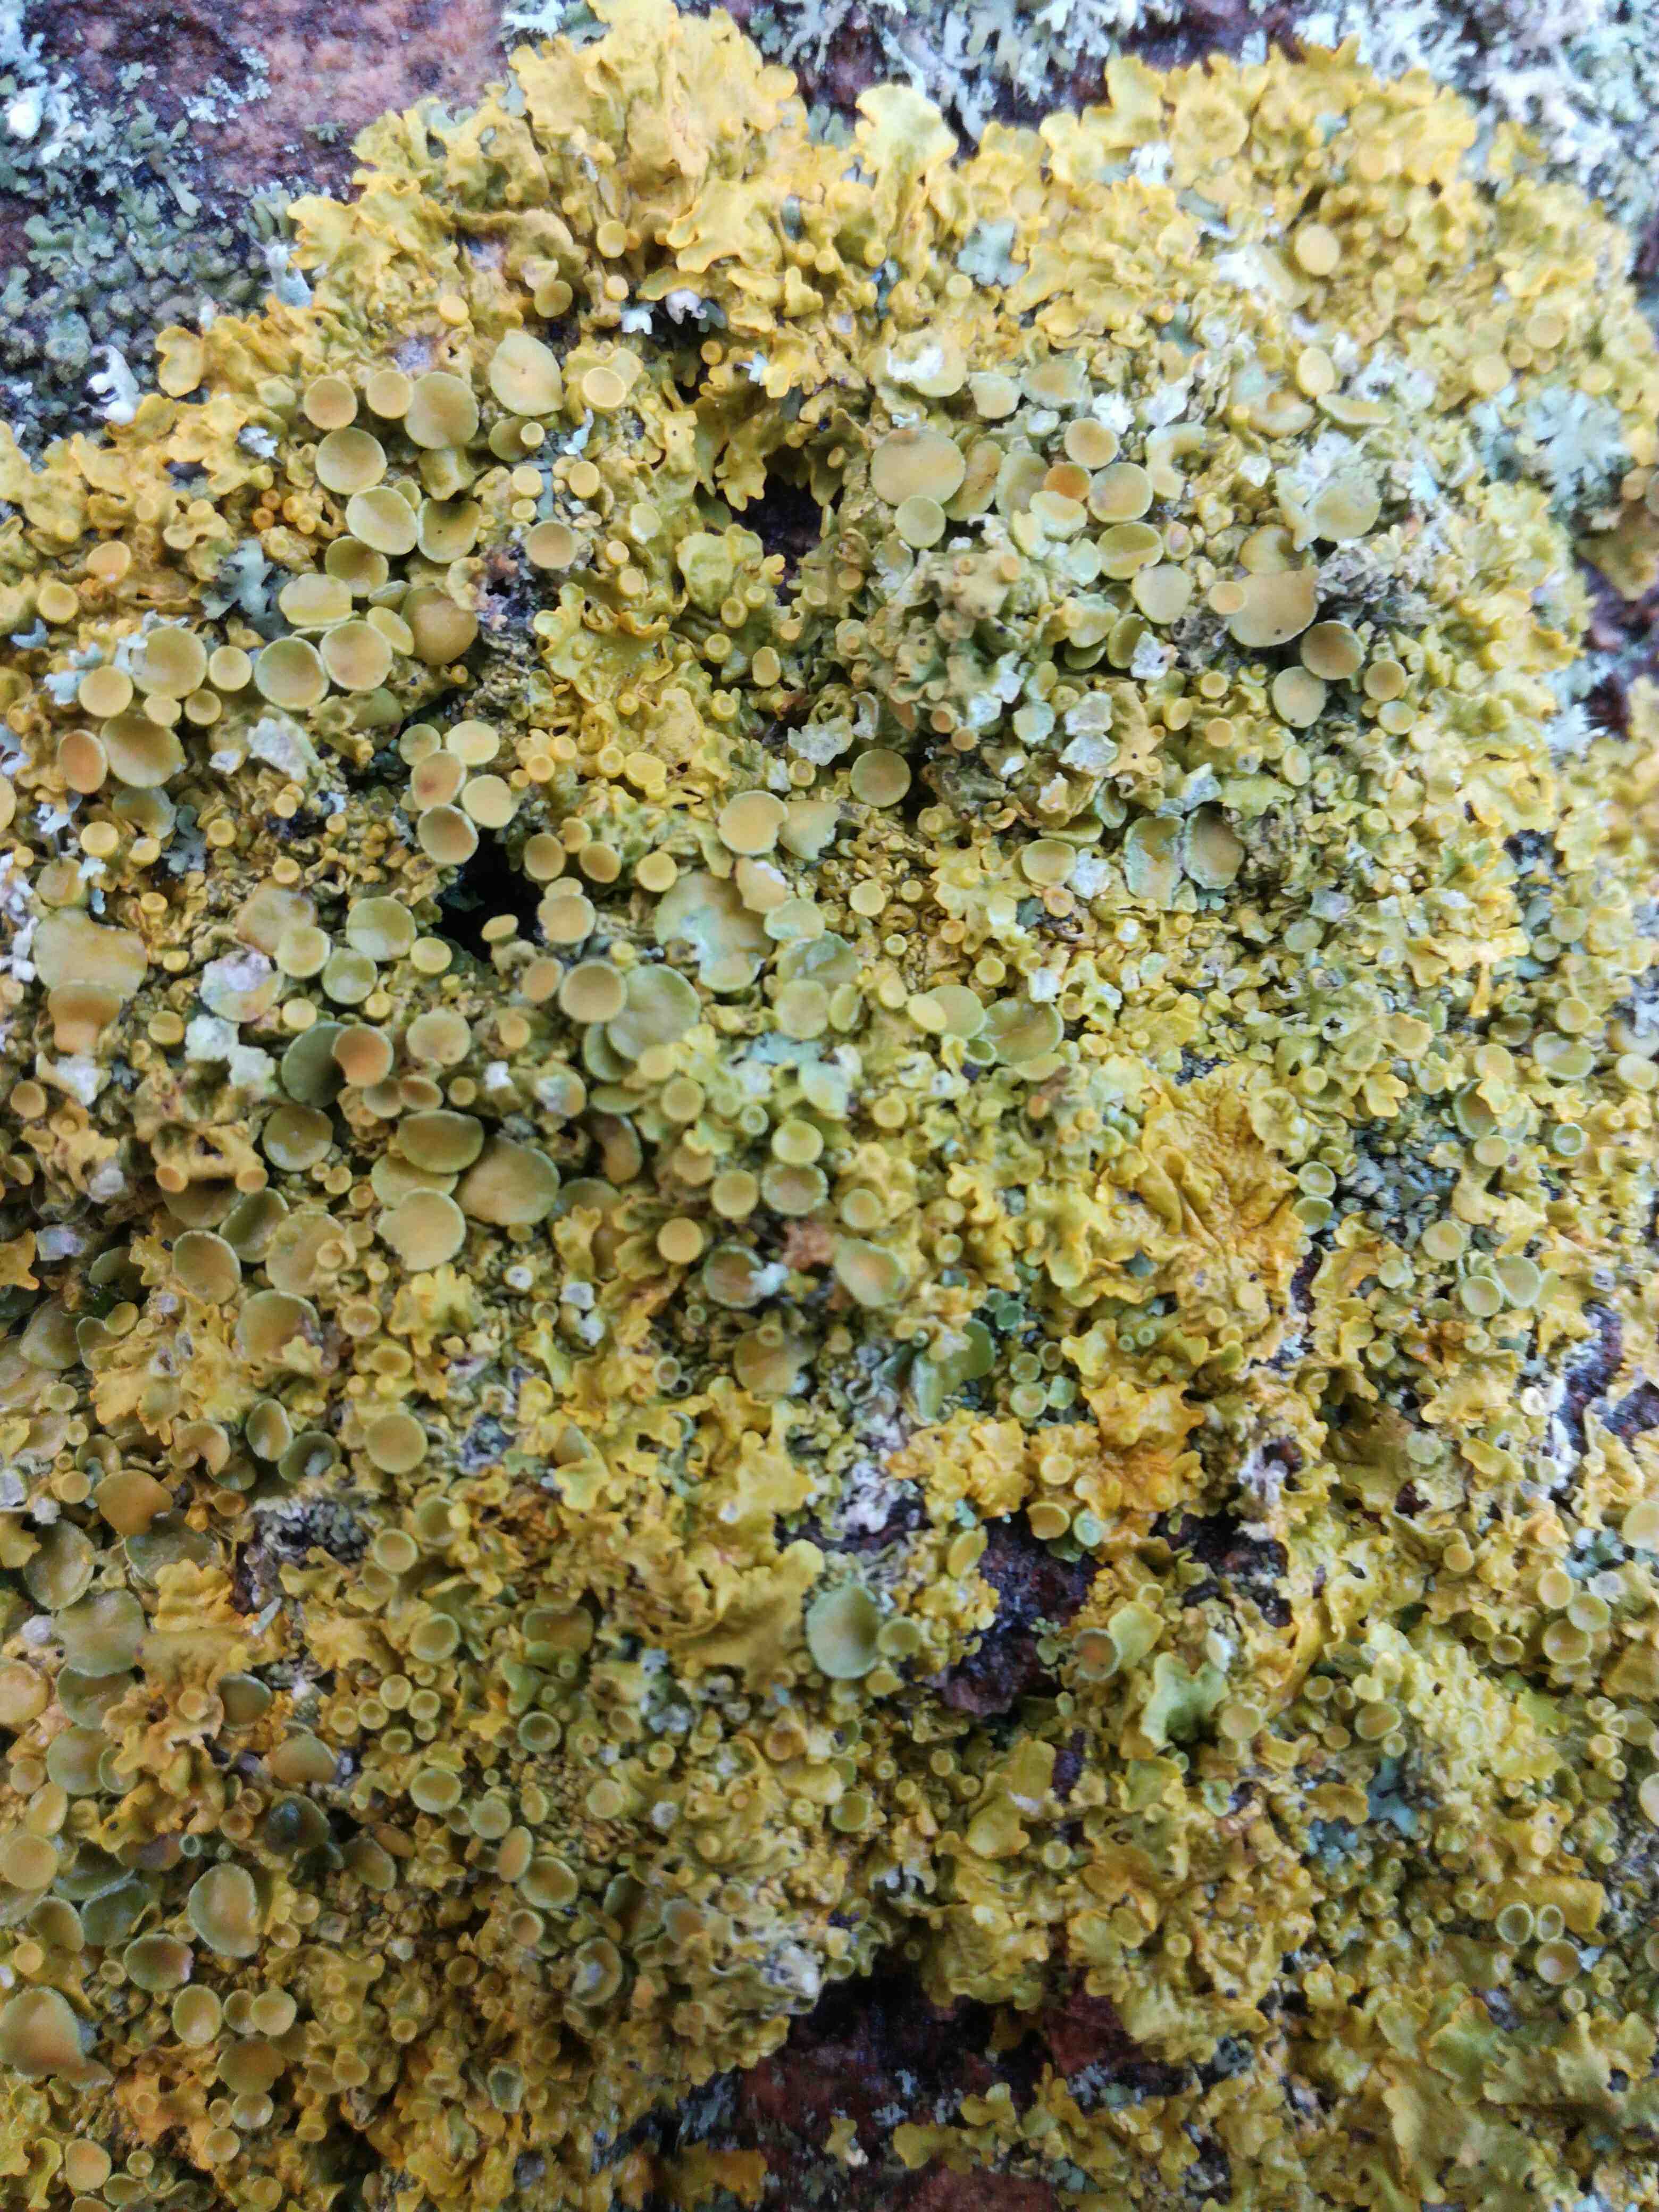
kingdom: Fungi
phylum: Ascomycota
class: Lecanoromycetes
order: Teloschistales
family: Teloschistaceae
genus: Xanthoria
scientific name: Xanthoria parietina
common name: almindelig væggelav
